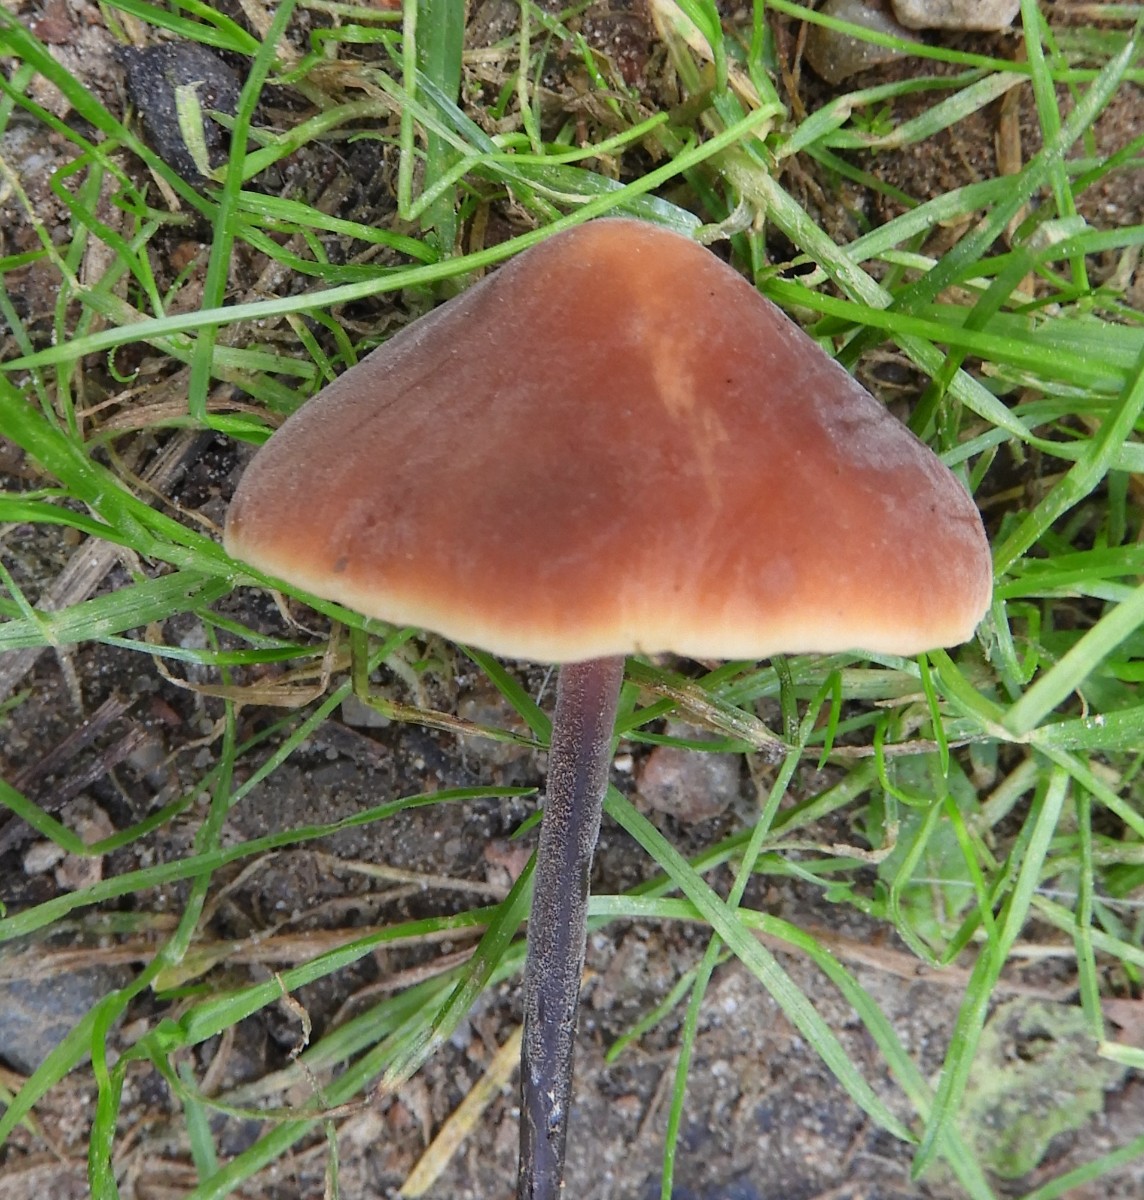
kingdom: Fungi
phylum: Basidiomycota
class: Agaricomycetes
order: Agaricales
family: Macrocystidiaceae
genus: Macrocystidia
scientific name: Macrocystidia cucumis
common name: agurkehat
